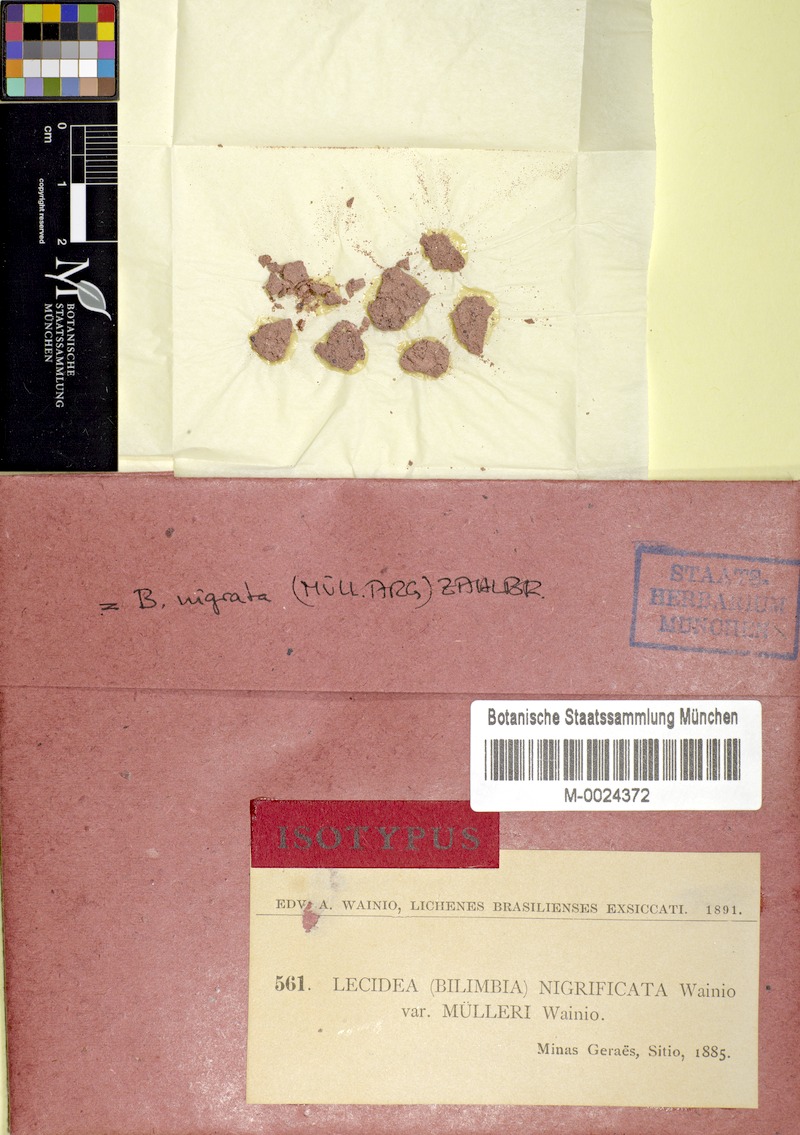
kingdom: Fungi
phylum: Ascomycota
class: Lecanoromycetes
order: Lecanorales
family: Byssolomataceae
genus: Micarea
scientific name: Micarea lignaria
